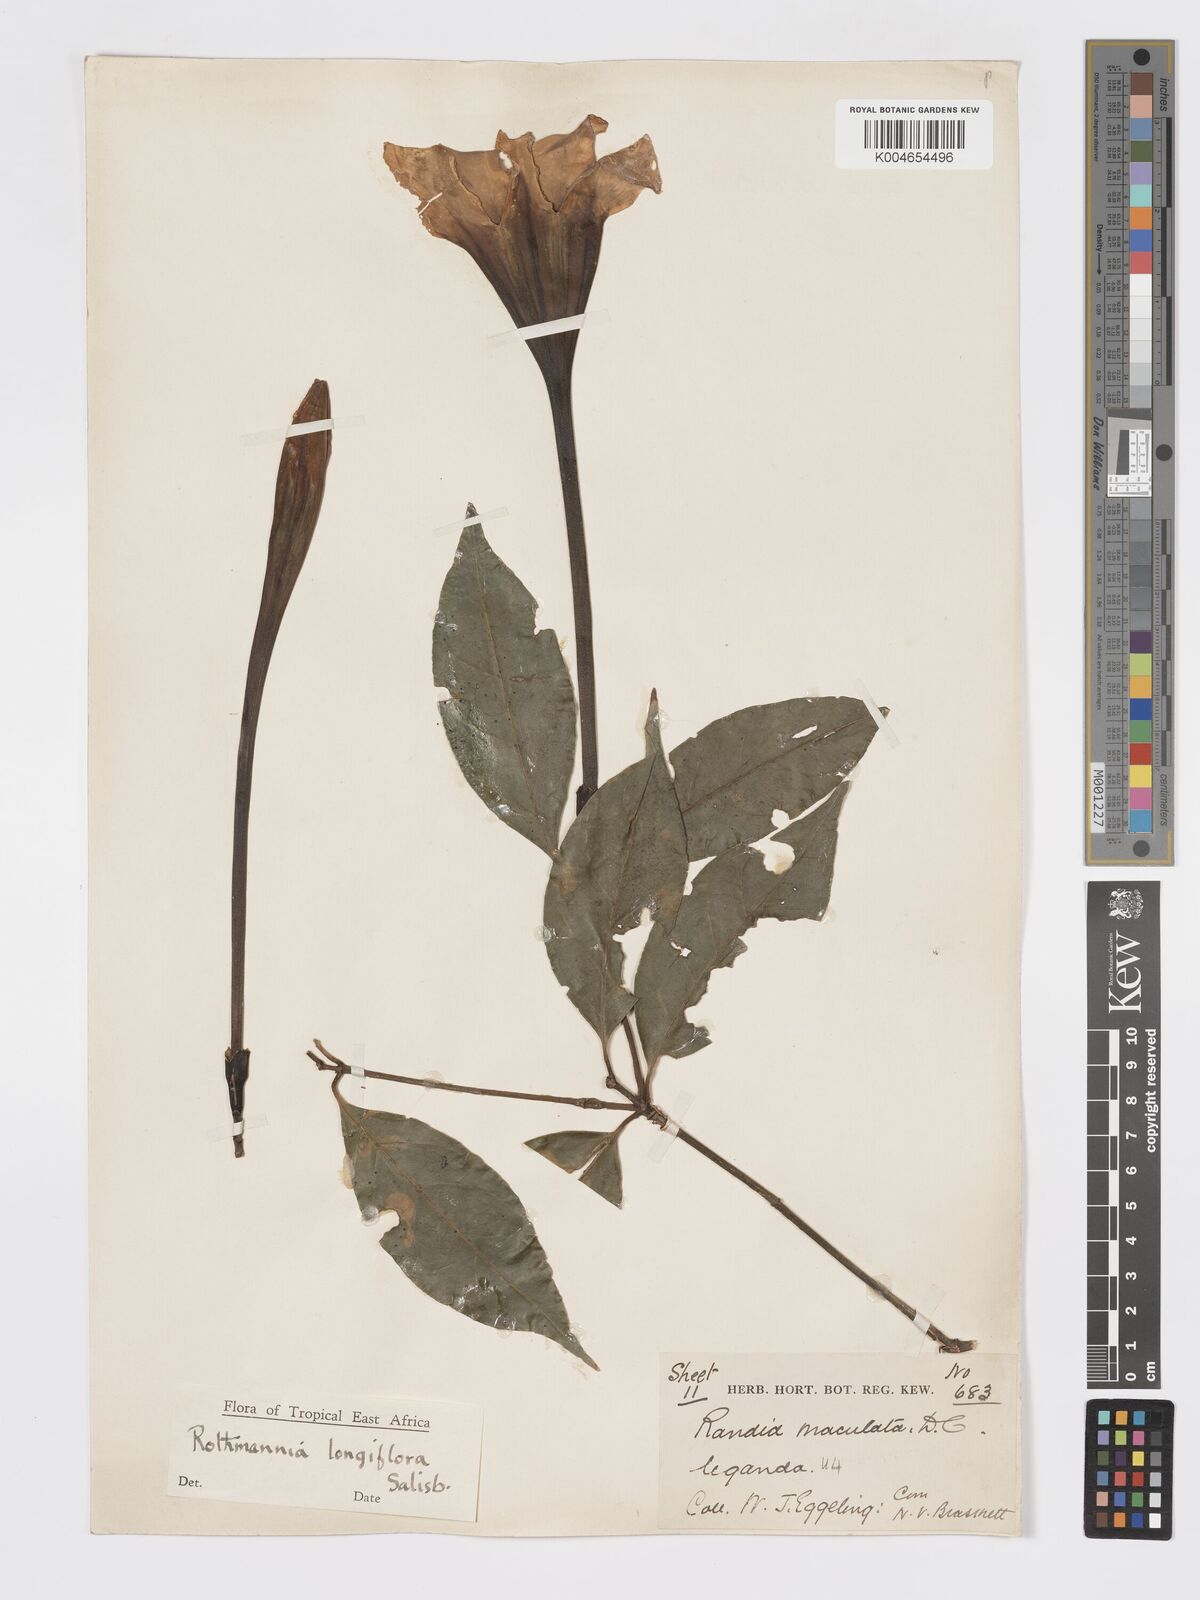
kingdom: Plantae
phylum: Tracheophyta
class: Magnoliopsida
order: Gentianales
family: Rubiaceae
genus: Rothmannia
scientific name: Rothmannia longiflora
